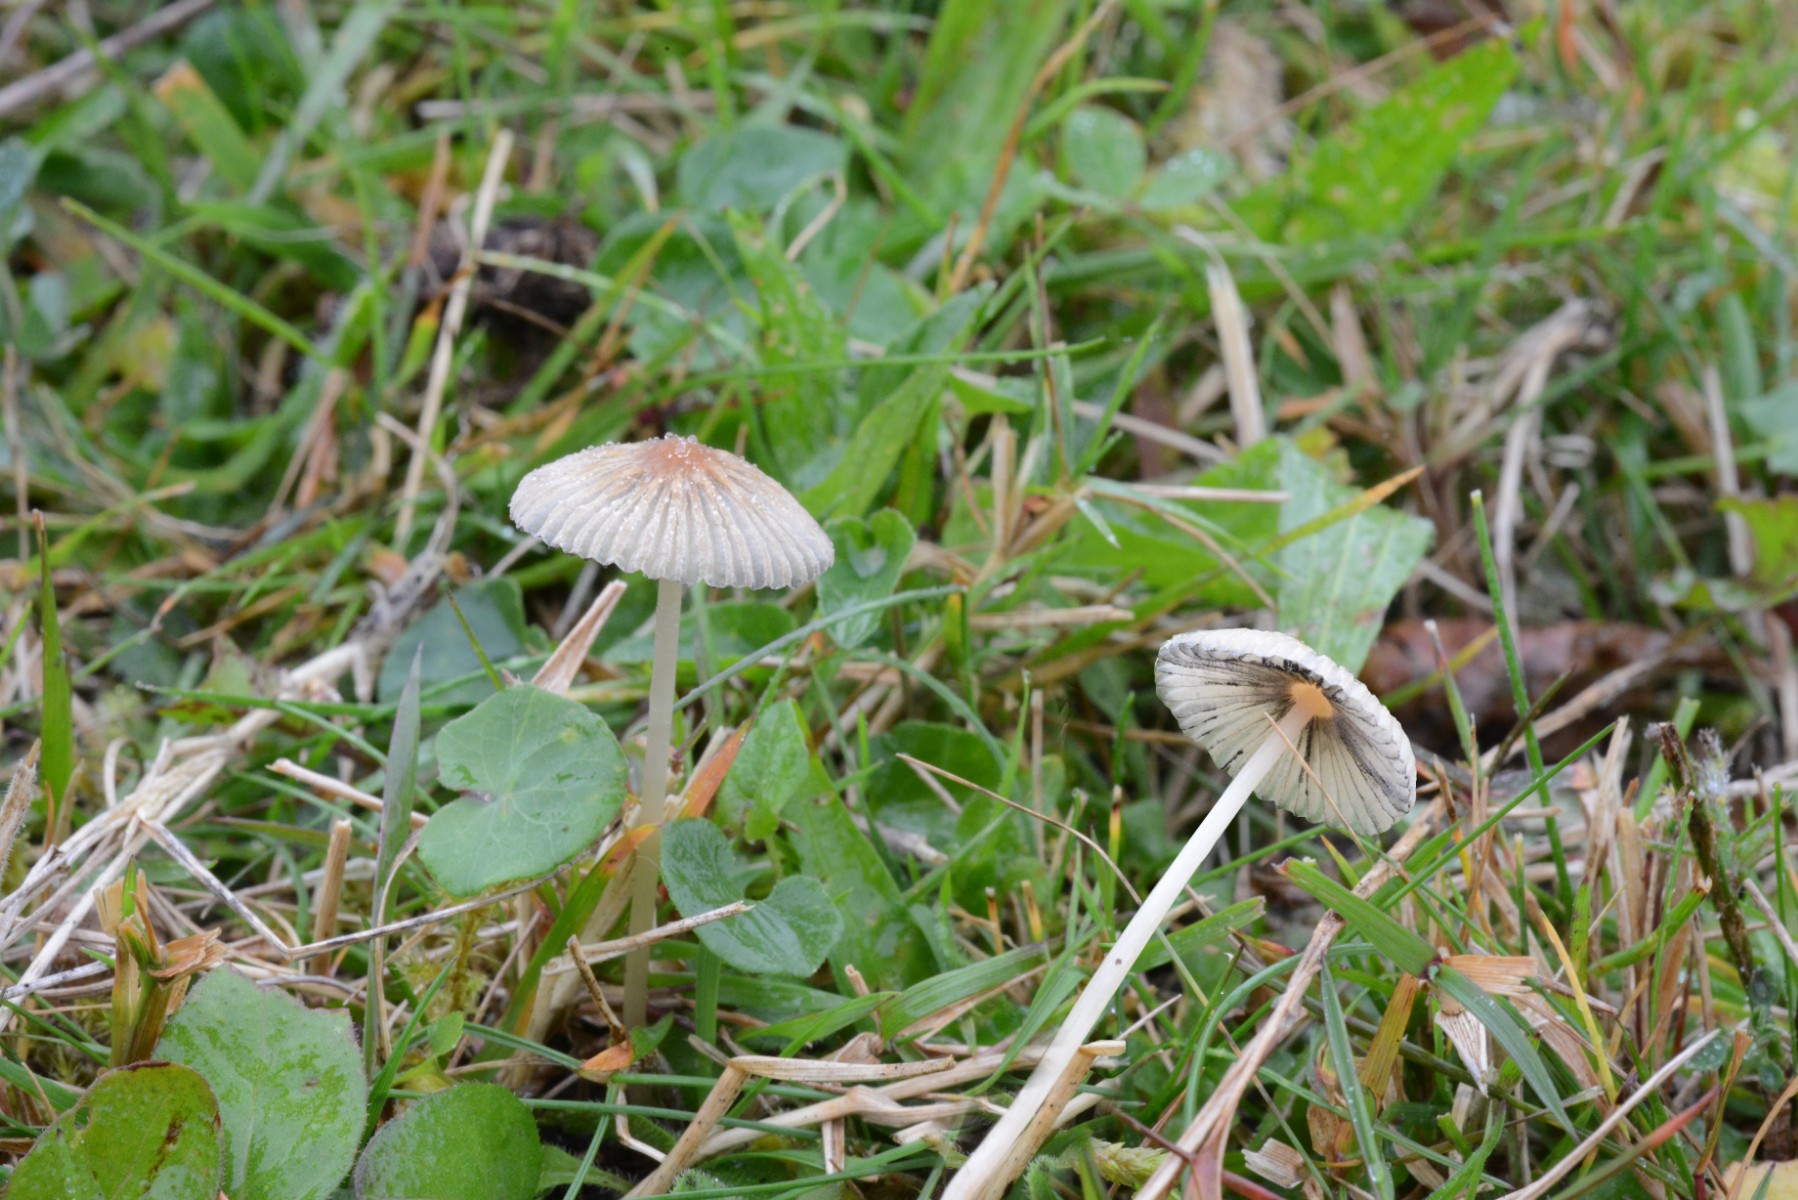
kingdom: Fungi
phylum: Basidiomycota
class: Agaricomycetes
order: Agaricales
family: Psathyrellaceae
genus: Parasola
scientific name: Parasola schroeteri
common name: bredsporet hjulhat
